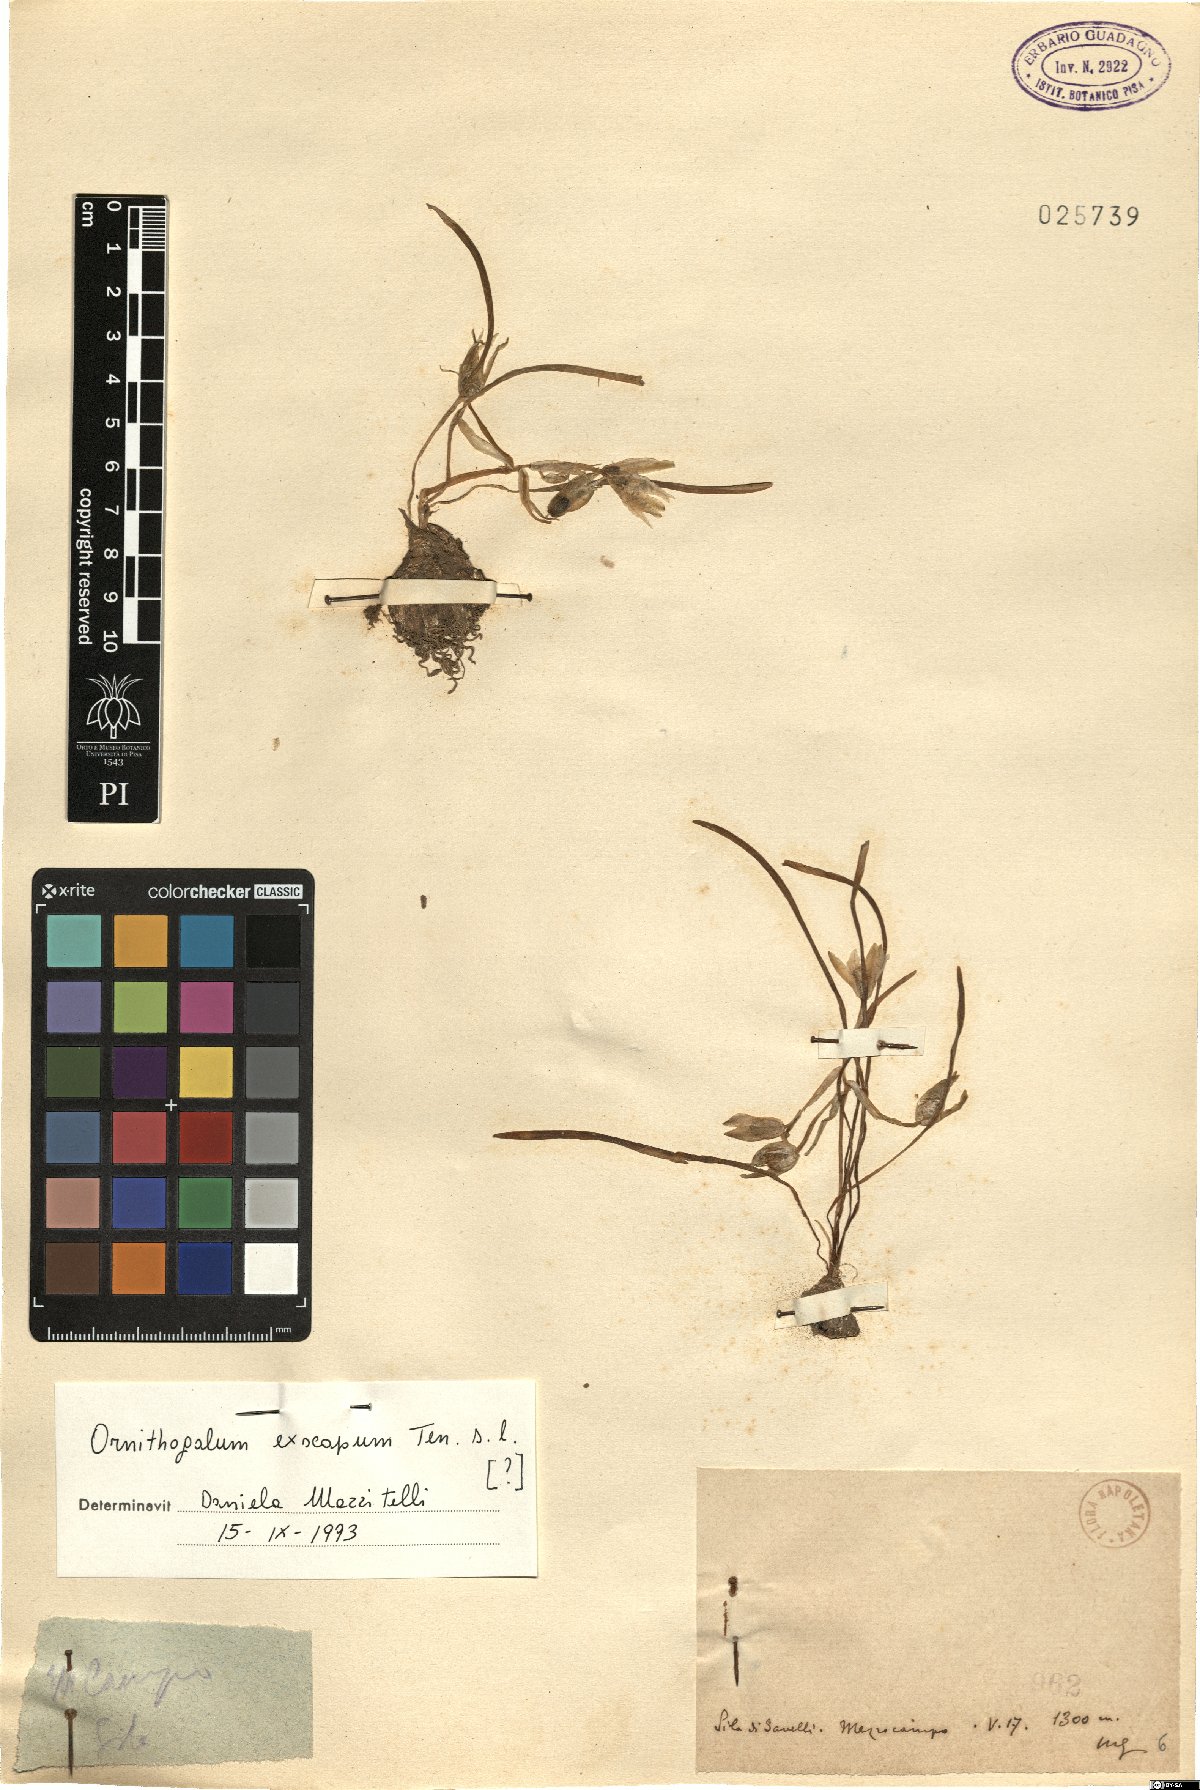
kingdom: Plantae
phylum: Tracheophyta
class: Liliopsida
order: Asparagales
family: Asparagaceae
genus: Ornithogalum
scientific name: Ornithogalum exscapum
